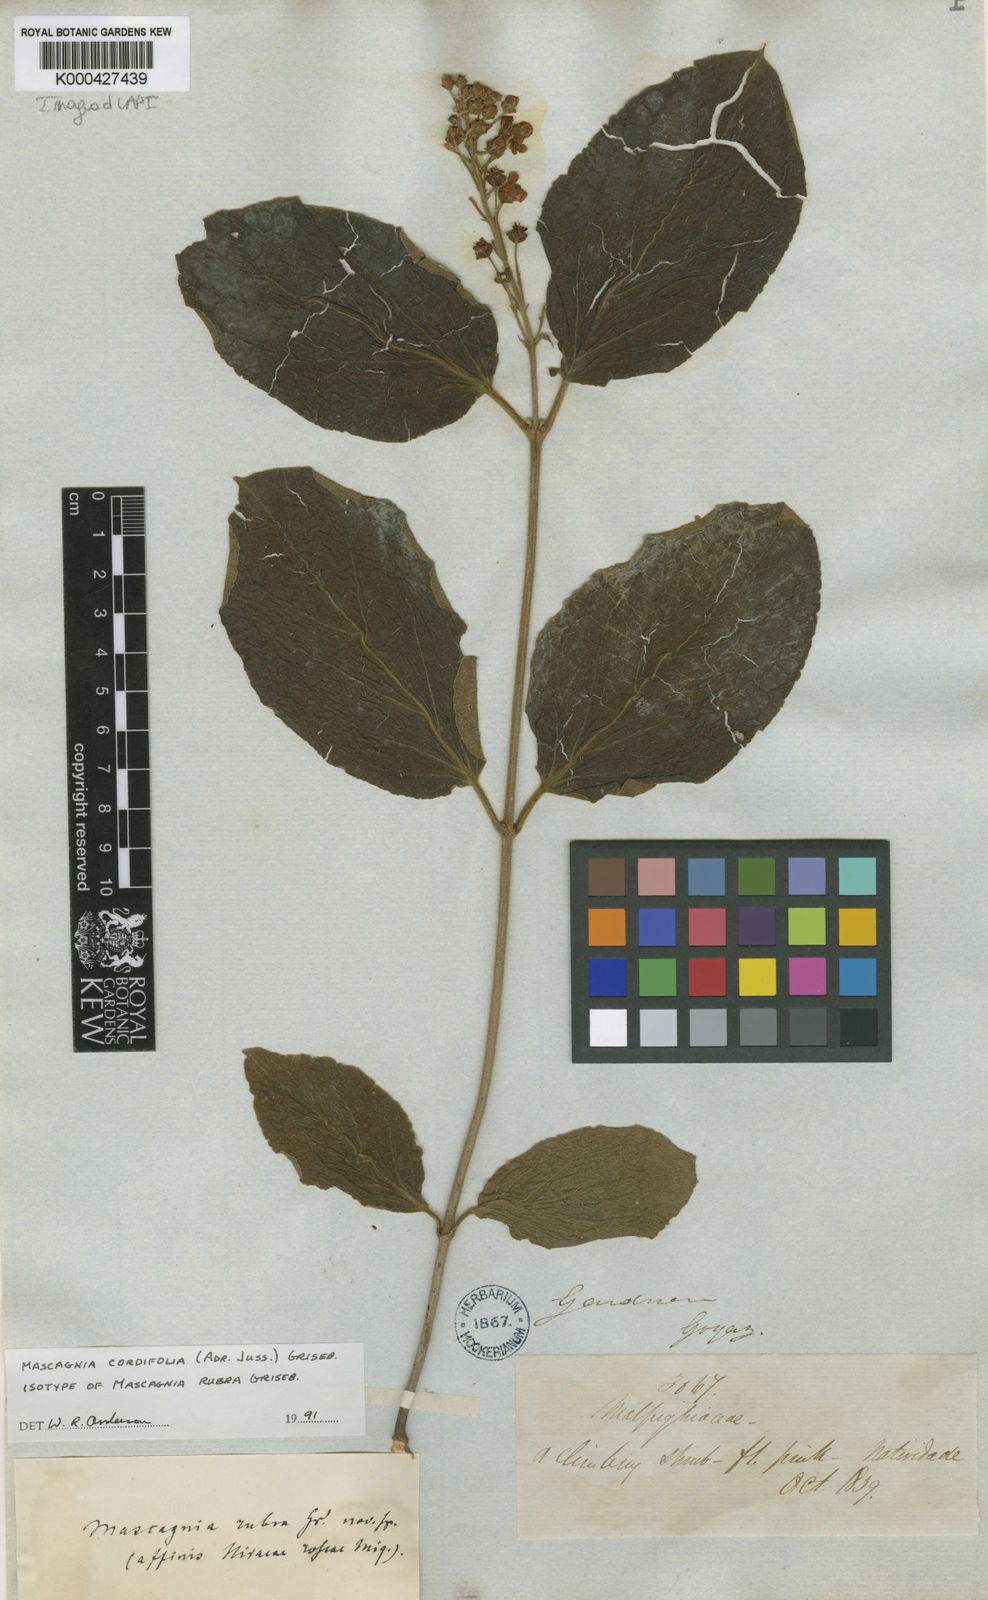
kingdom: Plantae
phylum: Tracheophyta
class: Magnoliopsida
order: Malpighiales
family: Malpighiaceae
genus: Mascagnia
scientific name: Mascagnia cordifolia
